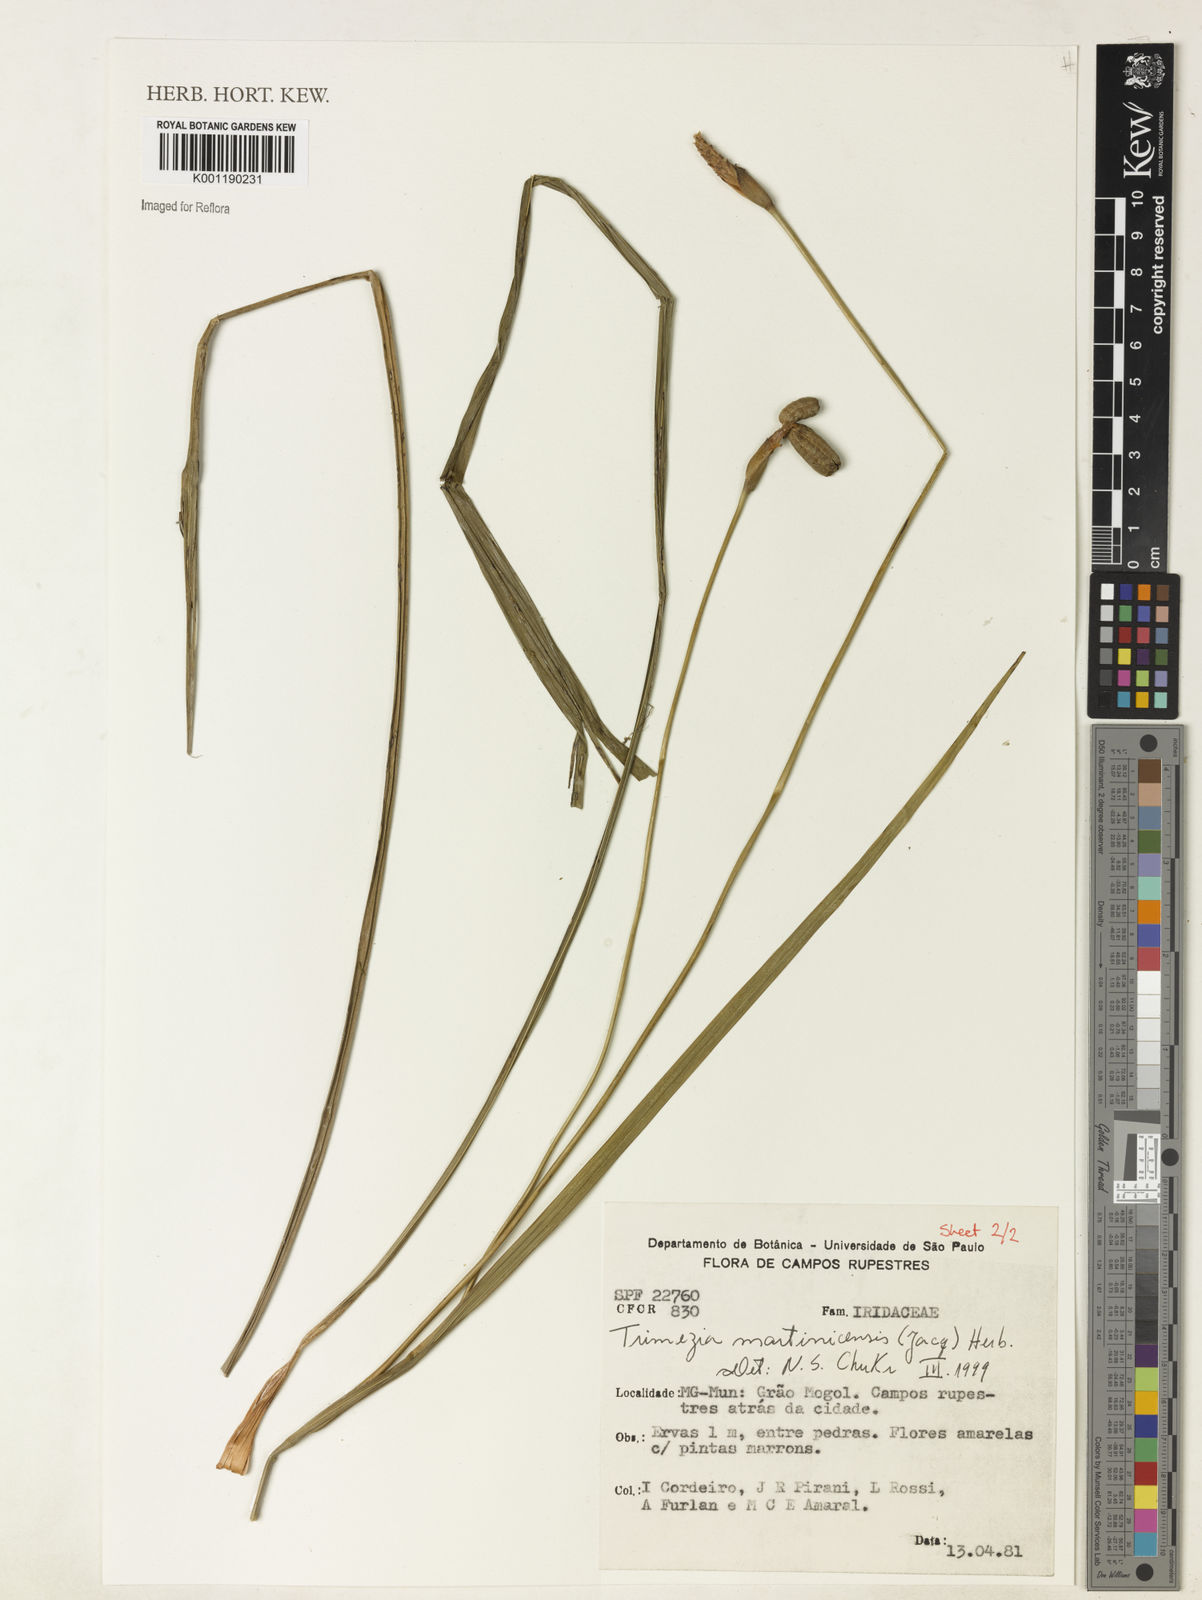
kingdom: Plantae
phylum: Tracheophyta
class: Liliopsida
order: Asparagales
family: Iridaceae
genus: Trimezia
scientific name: Trimezia martinicensis
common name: Martinique trimezia
